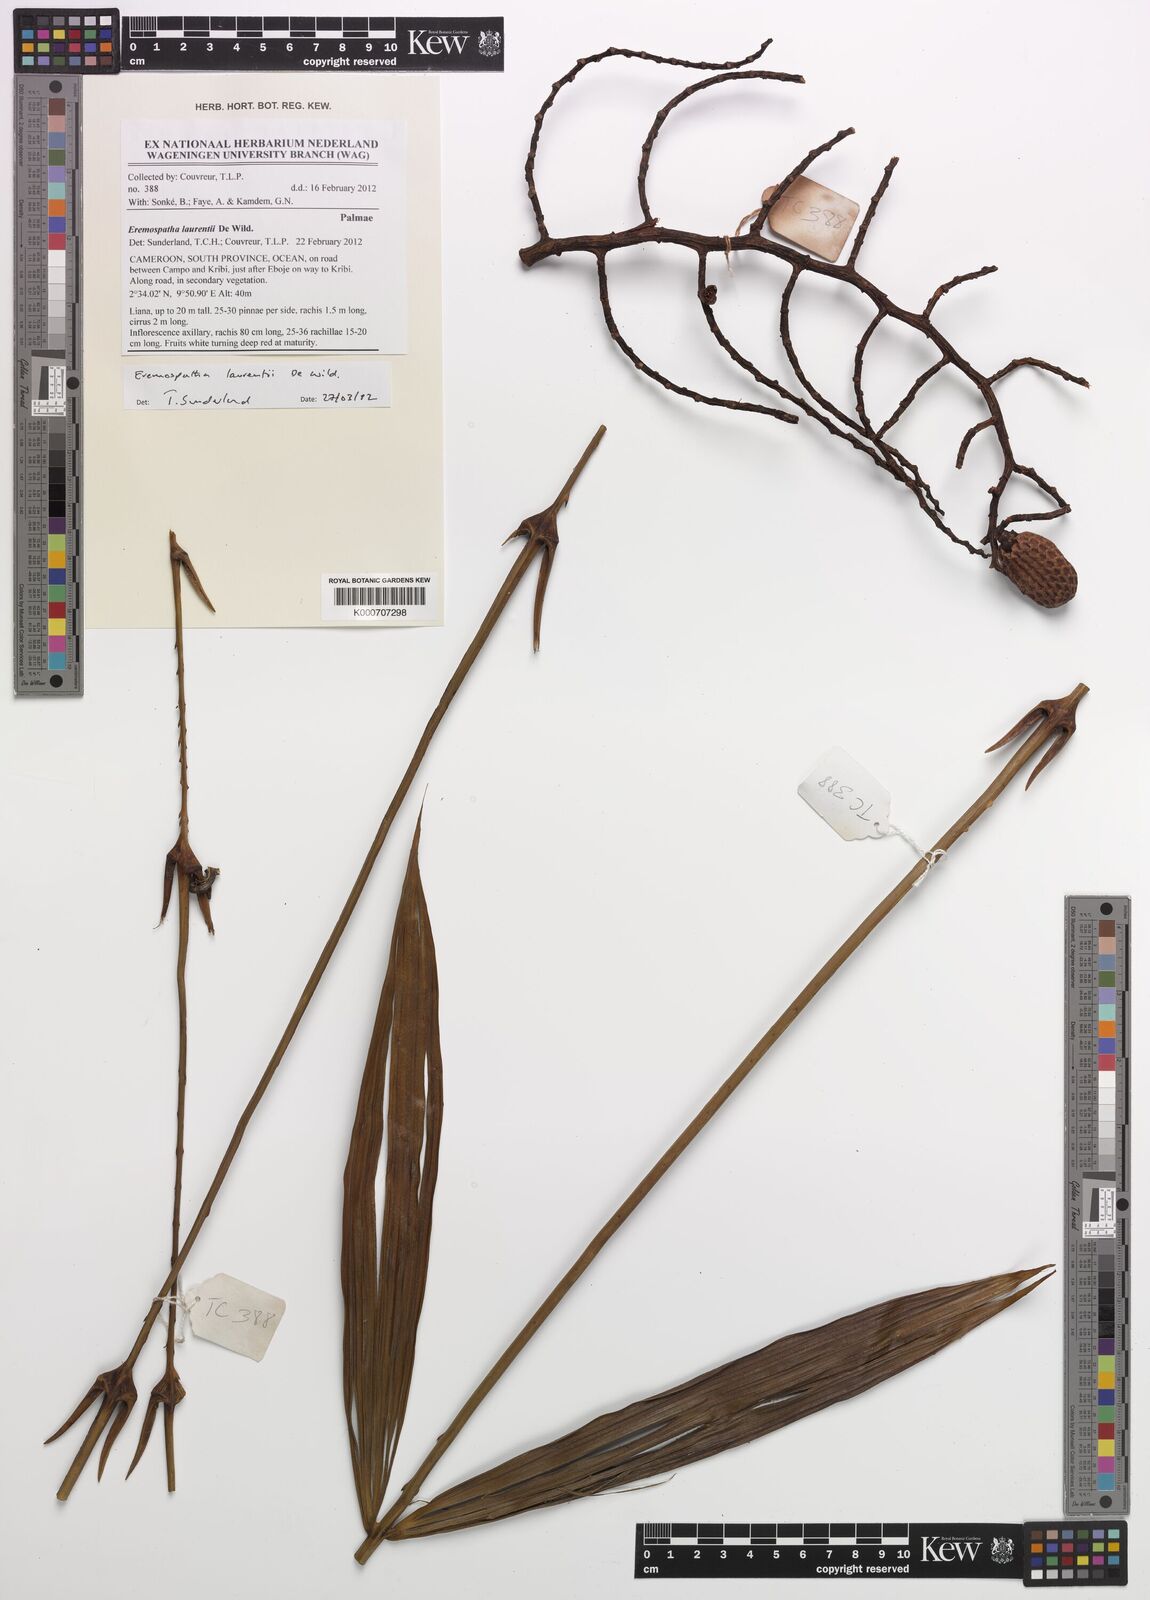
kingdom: Plantae
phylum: Tracheophyta
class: Liliopsida
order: Arecales
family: Arecaceae
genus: Eremospatha
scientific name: Eremospatha laurentii
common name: Rattan palm
